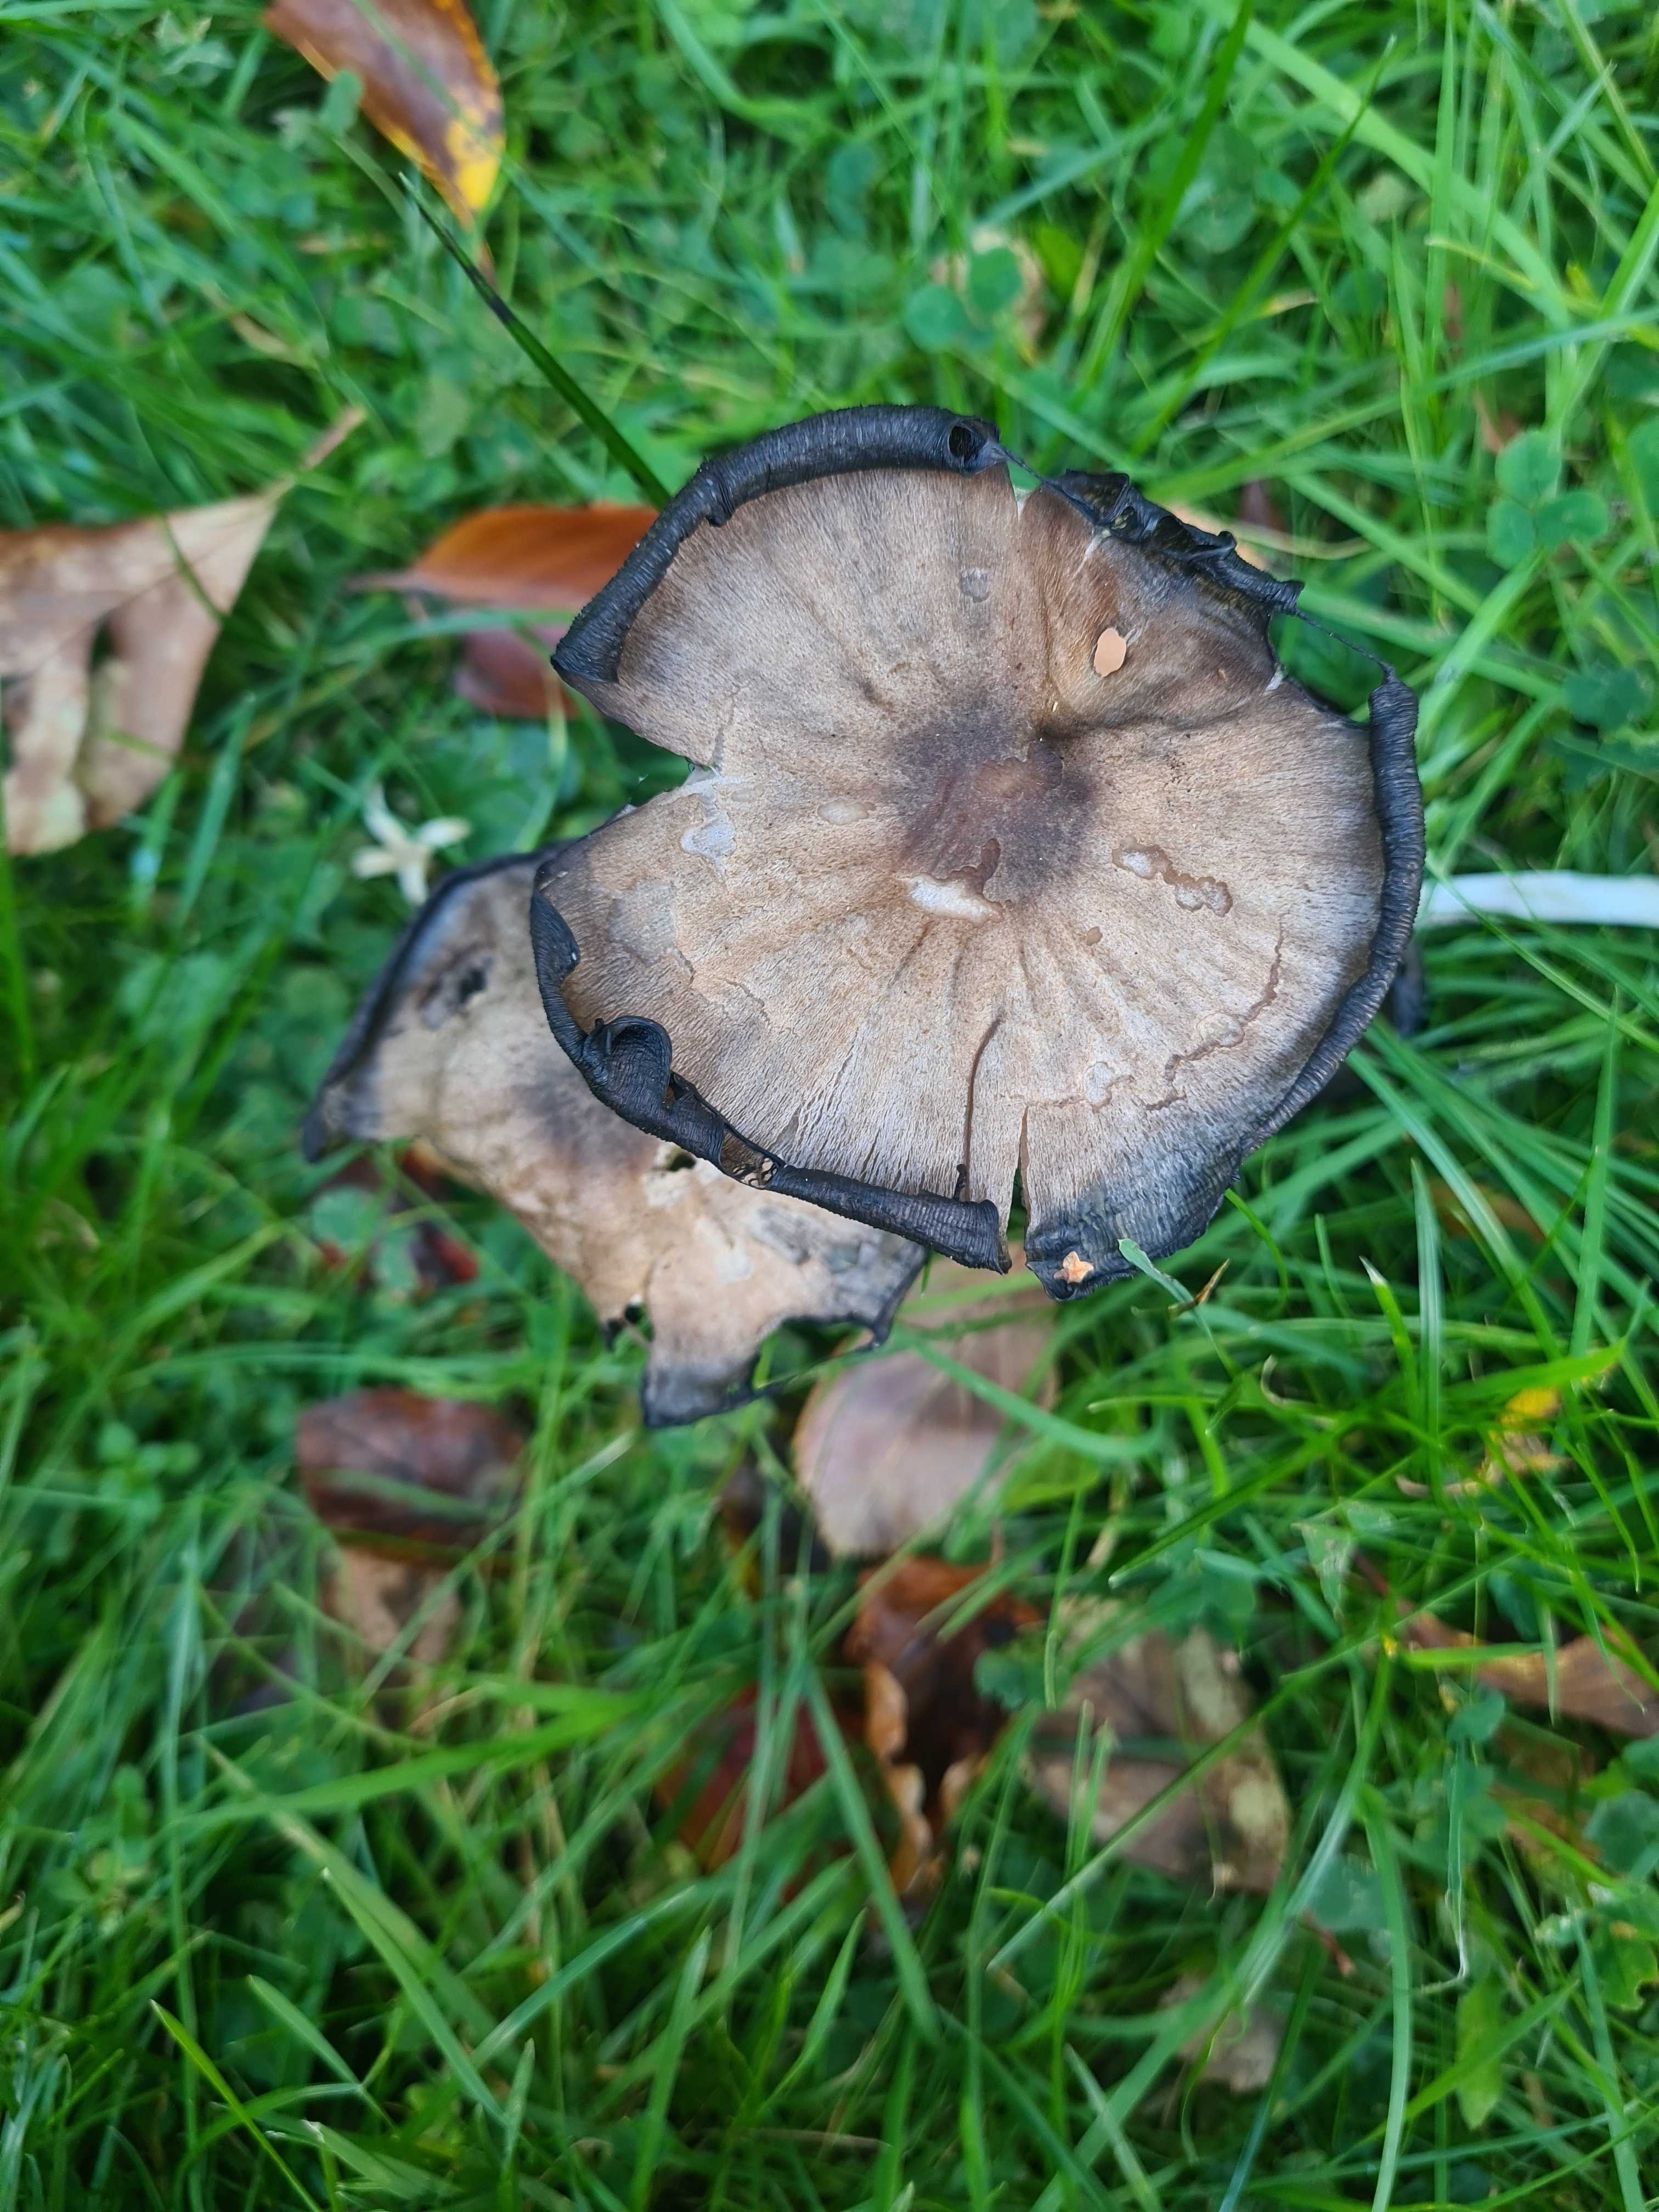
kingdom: Fungi
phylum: Basidiomycota
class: Agaricomycetes
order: Agaricales
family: Psathyrellaceae
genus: Coprinopsis
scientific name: Coprinopsis atramentaria
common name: almindelig blækhat
